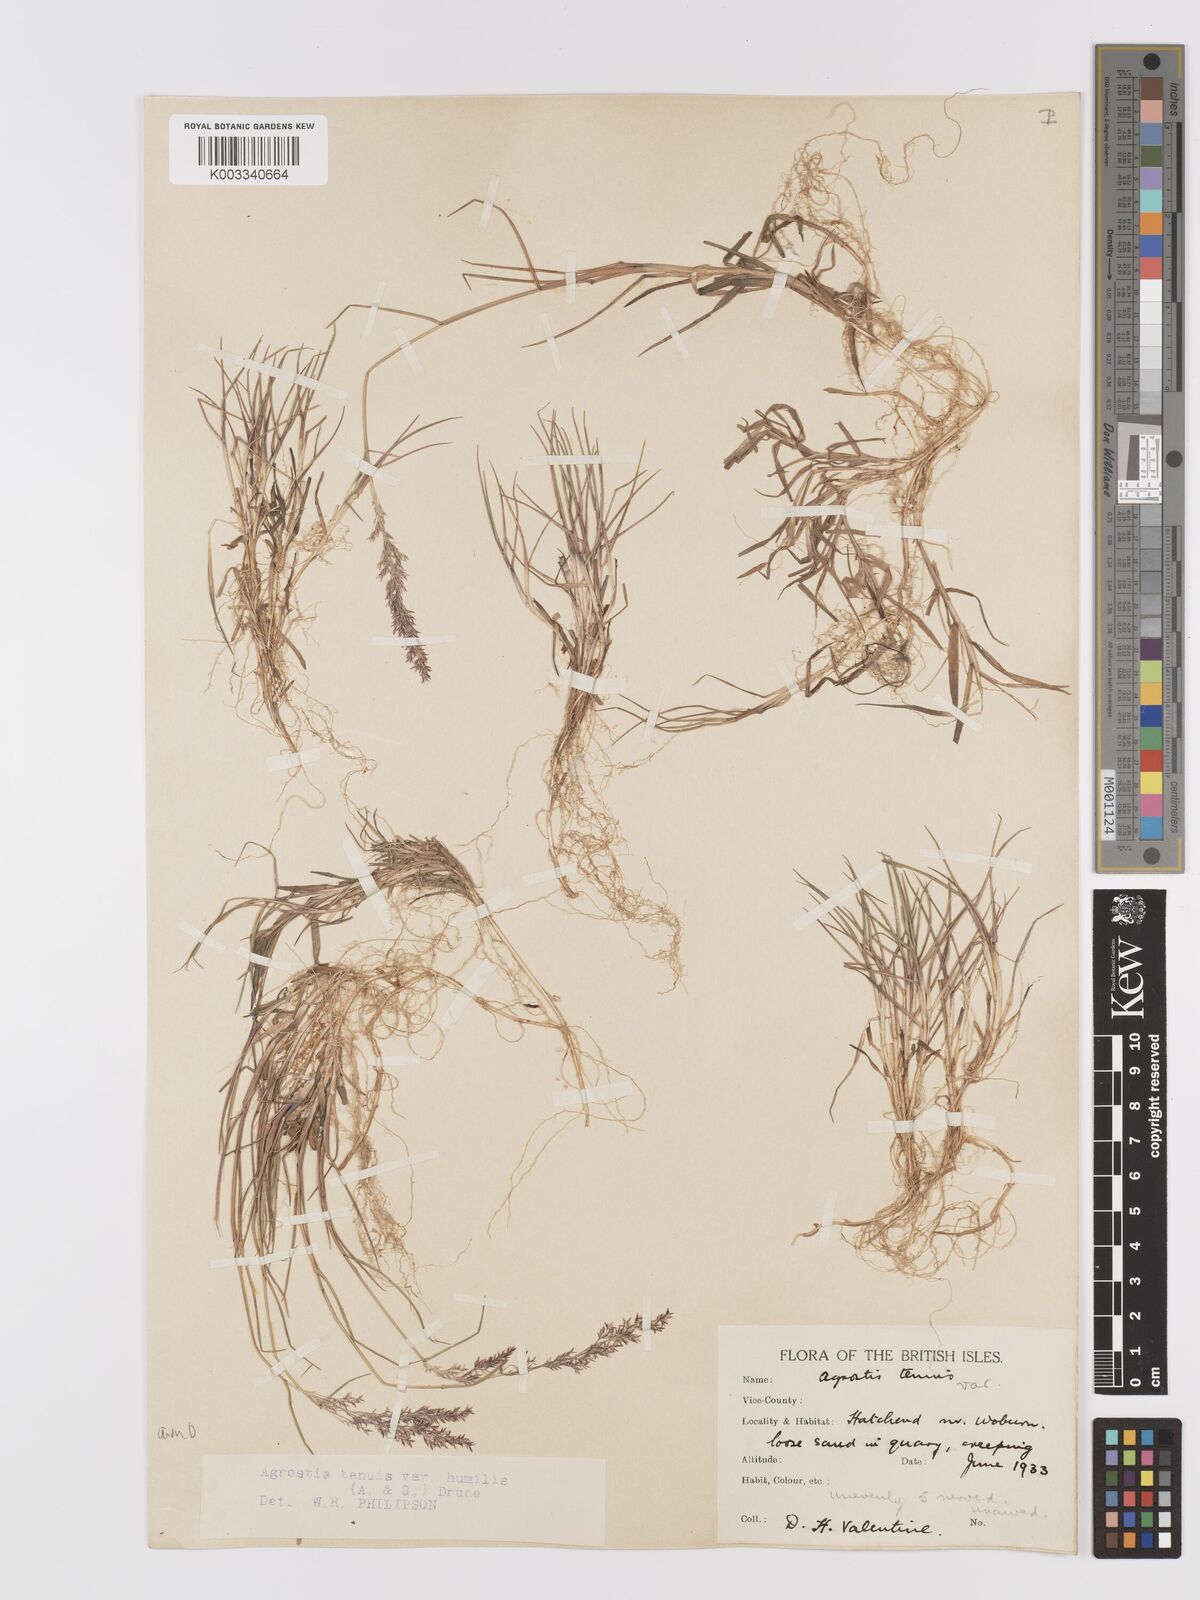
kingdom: Plantae
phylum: Tracheophyta
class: Liliopsida
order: Poales
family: Poaceae
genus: Agrostis
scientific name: Agrostis capillaris
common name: Colonial bentgrass
